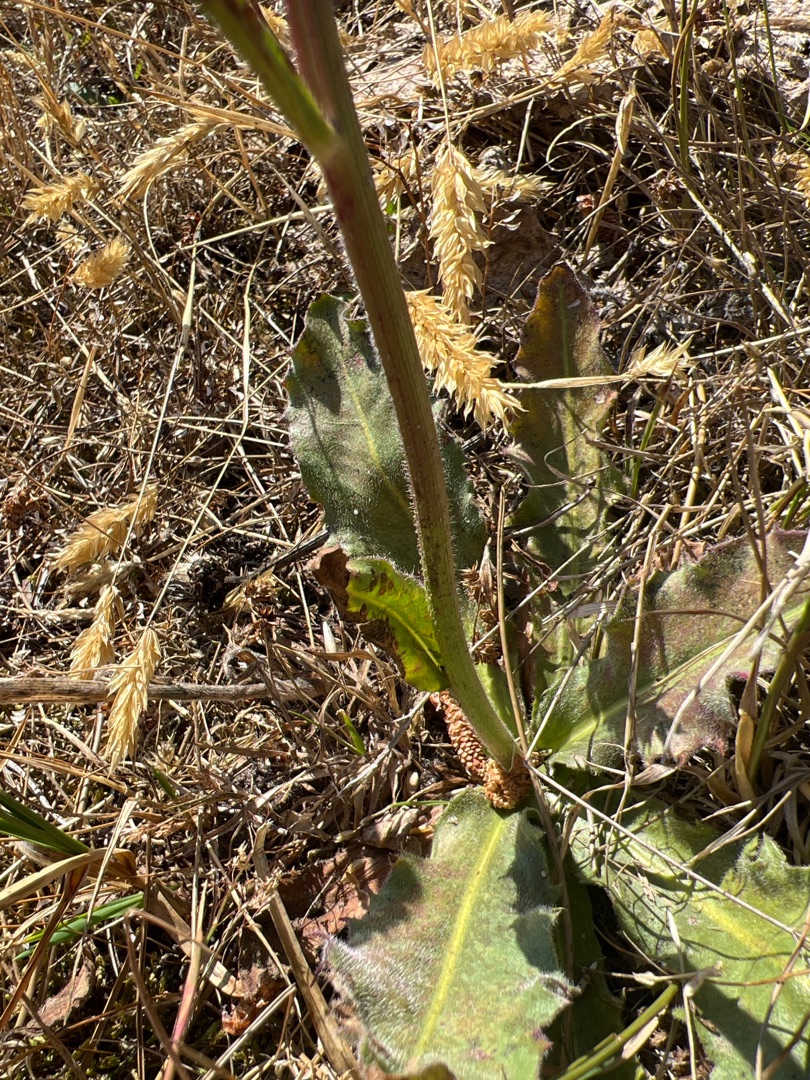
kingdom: Plantae
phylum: Tracheophyta
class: Magnoliopsida
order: Asterales
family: Asteraceae
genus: Trommsdorffia
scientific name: Trommsdorffia maculata
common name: Plettet kongepen
